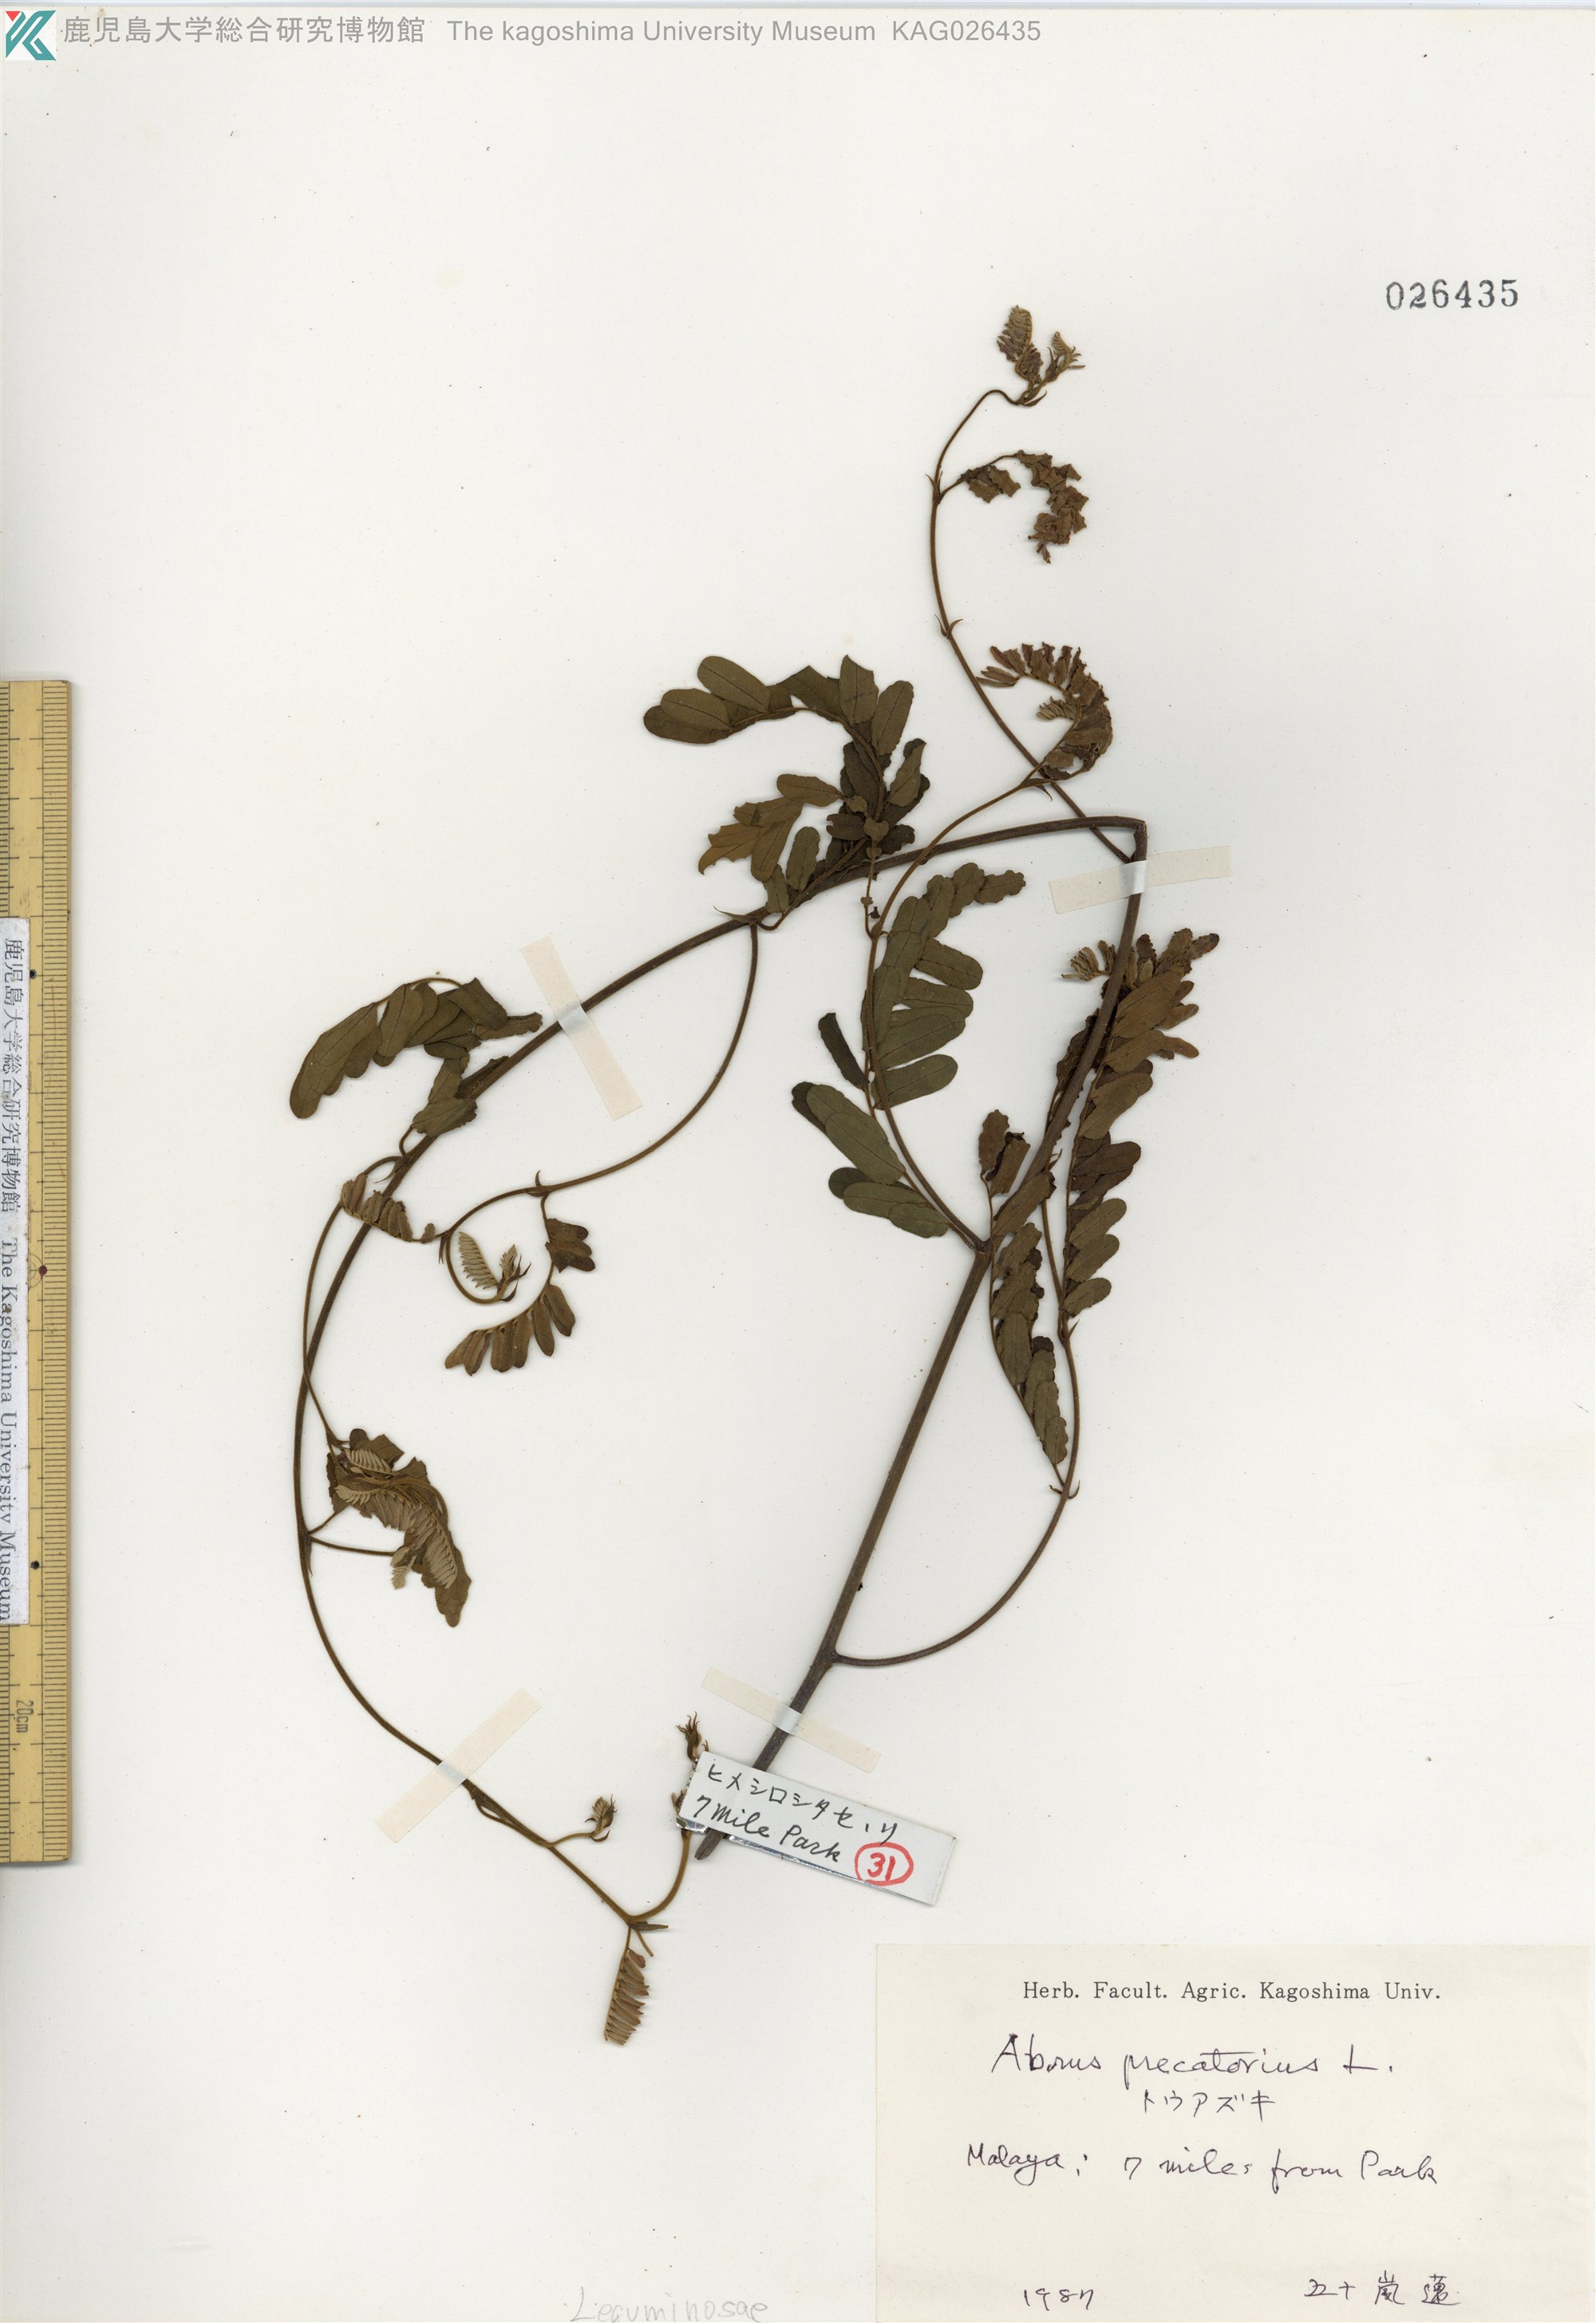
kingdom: Plantae
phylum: Tracheophyta
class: Magnoliopsida
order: Fabales
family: Fabaceae
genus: Abrus
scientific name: Abrus precatorius
